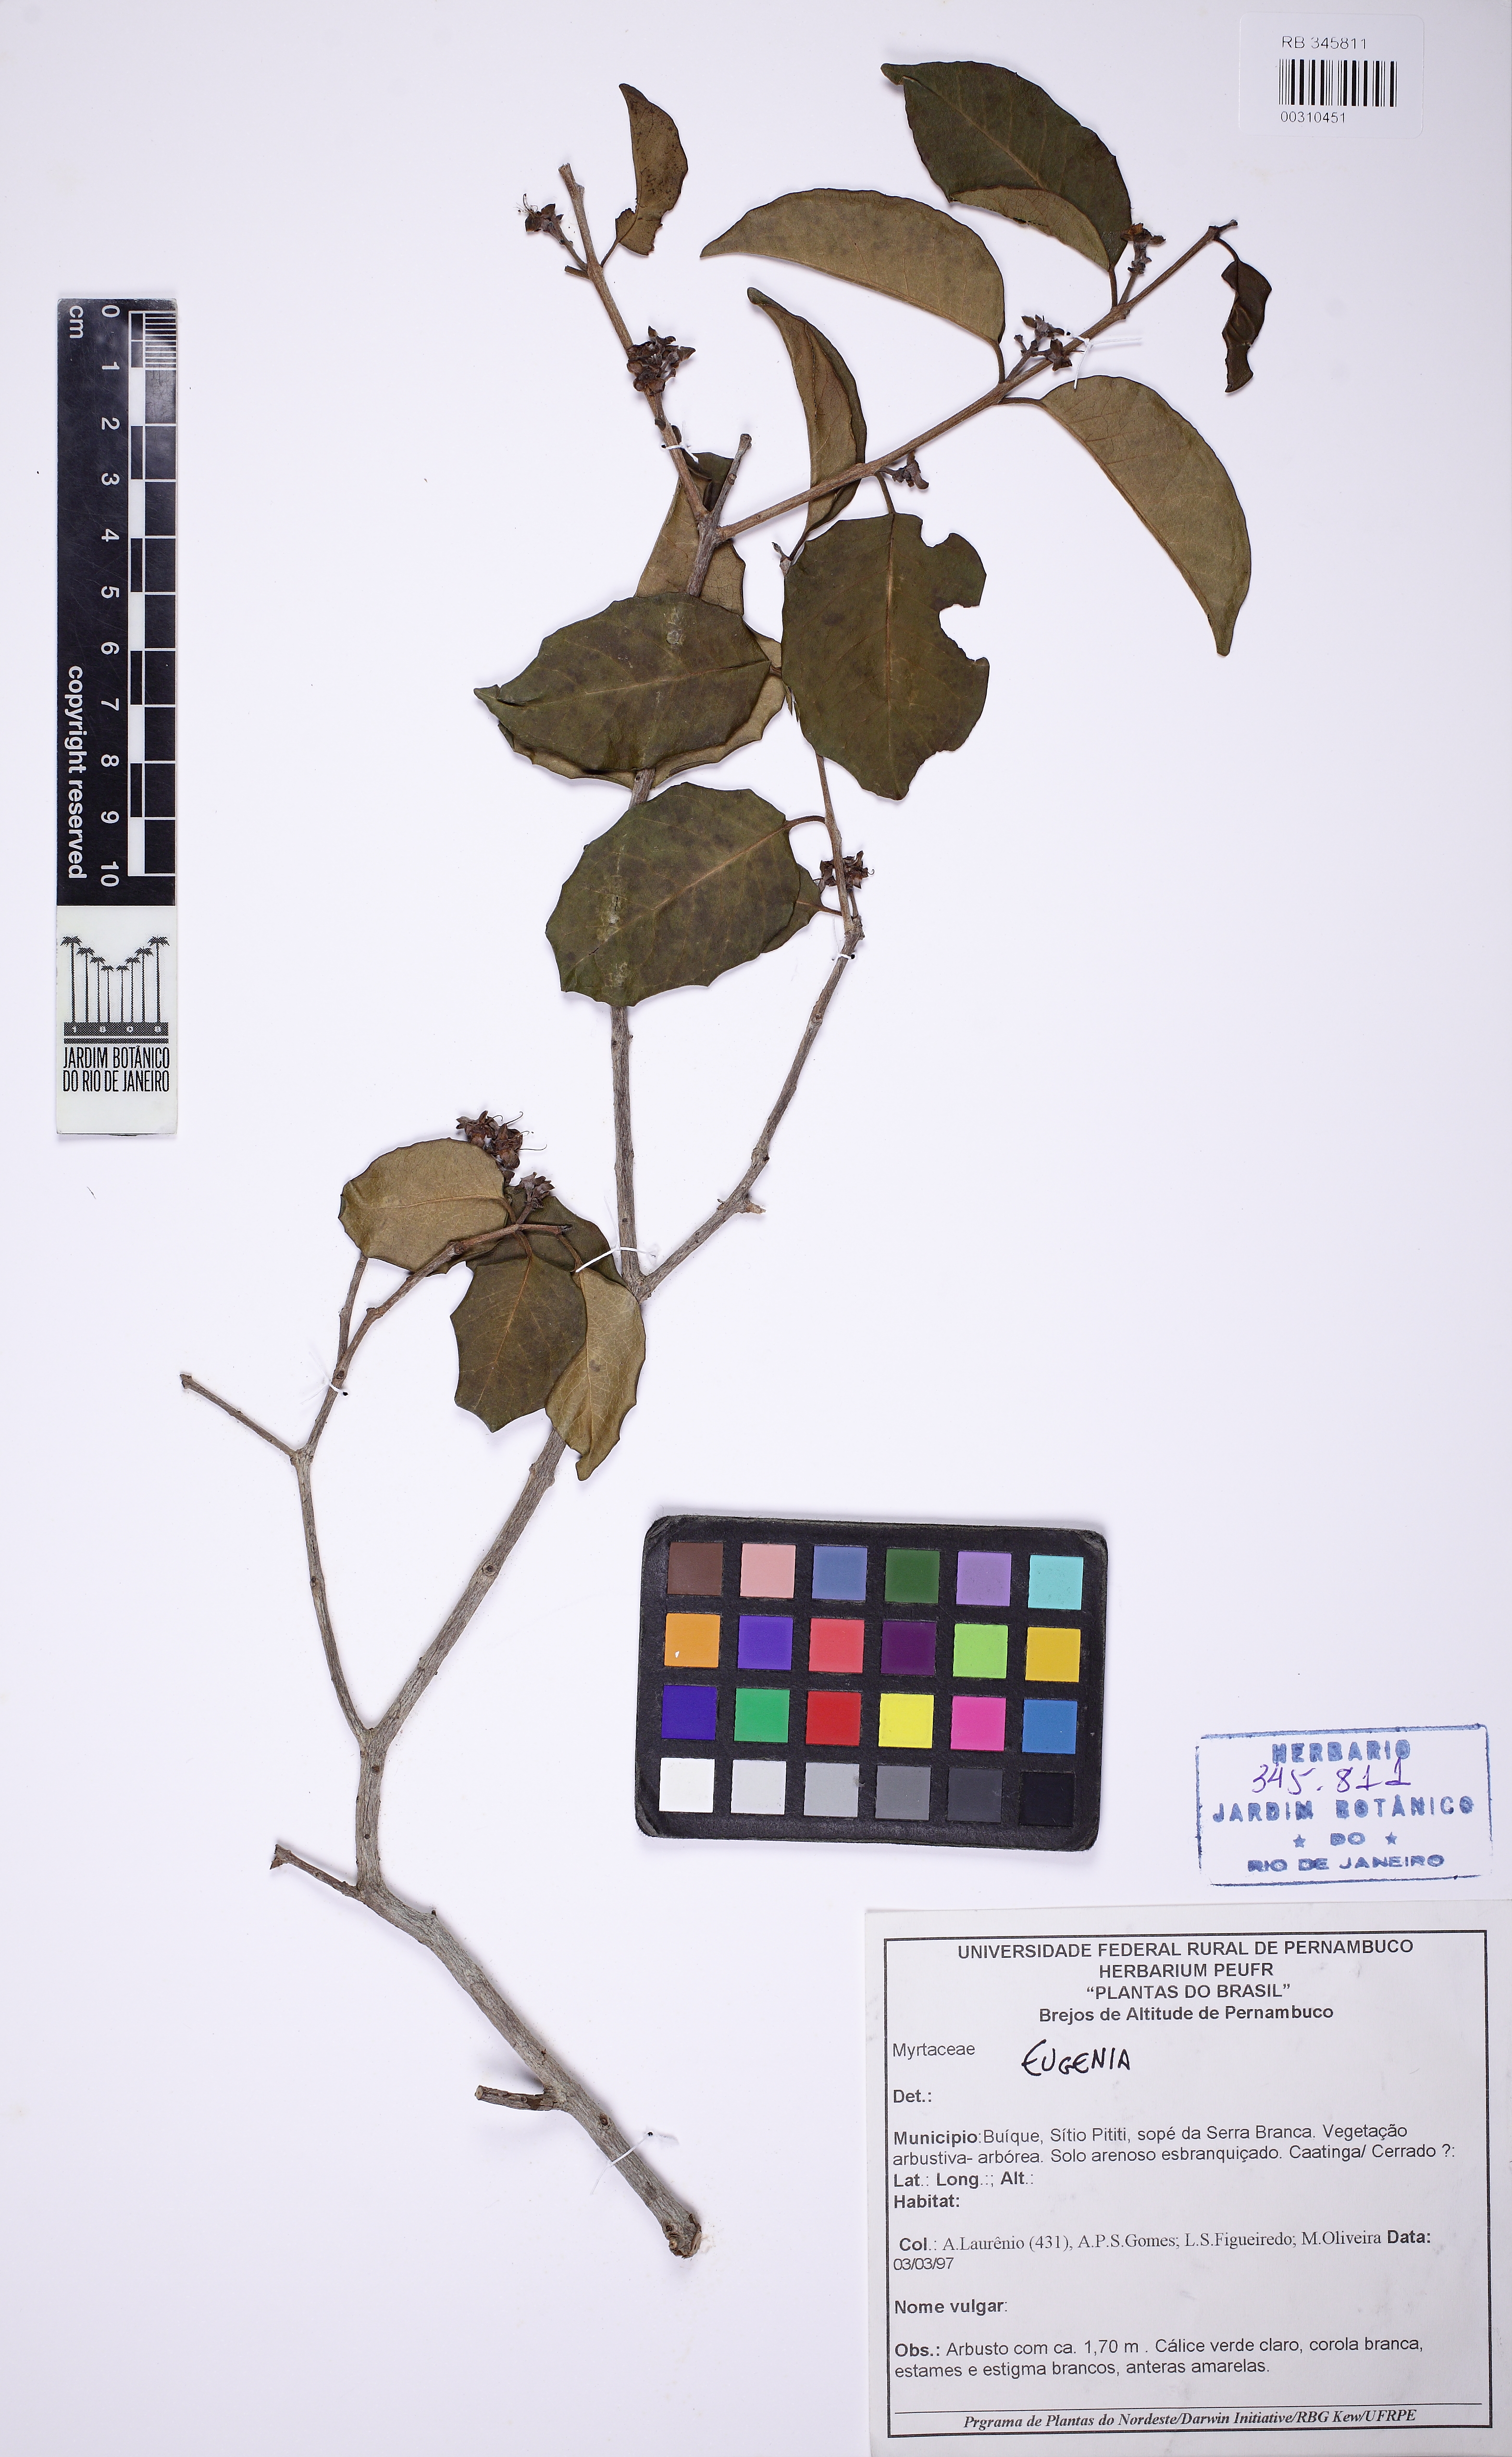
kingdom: Plantae
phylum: Tracheophyta
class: Magnoliopsida
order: Myrtales
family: Myrtaceae
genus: Eugenia
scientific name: Eugenia brejoensis
